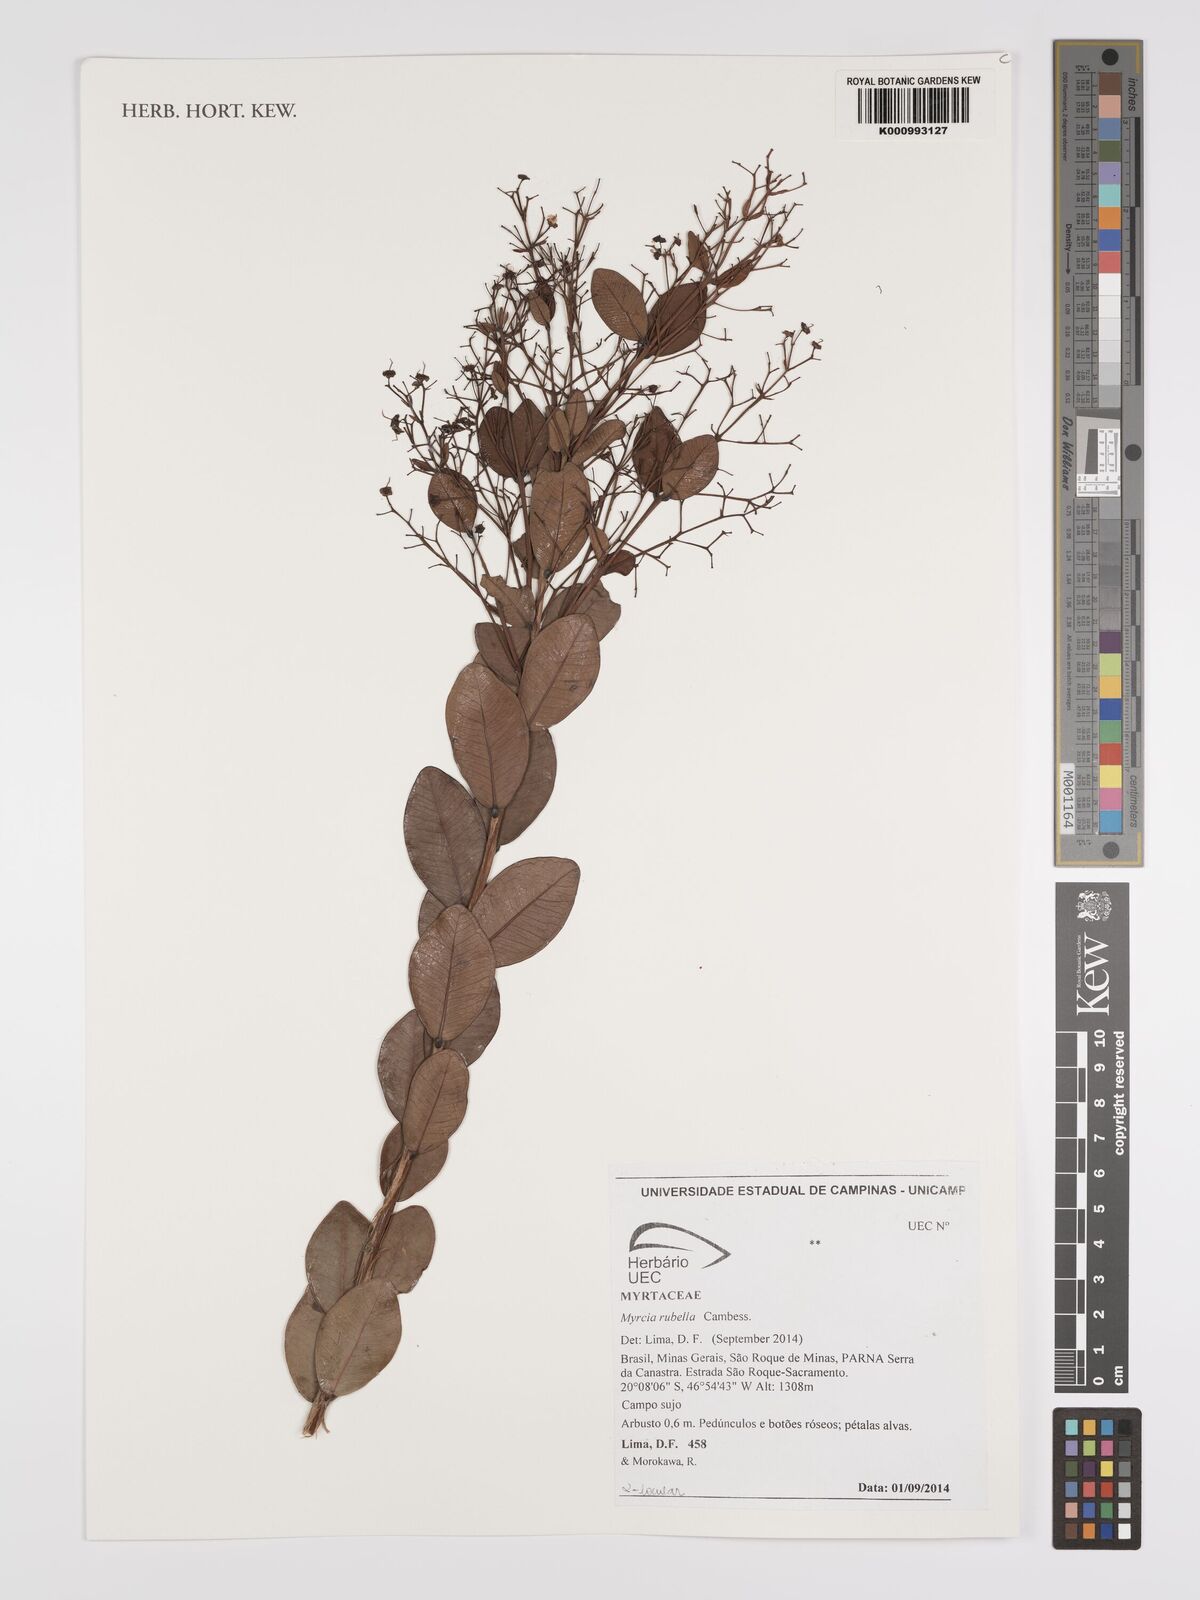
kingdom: Plantae
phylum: Tracheophyta
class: Magnoliopsida
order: Myrtales
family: Myrtaceae
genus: Myrcia
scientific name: Myrcia guianensis
